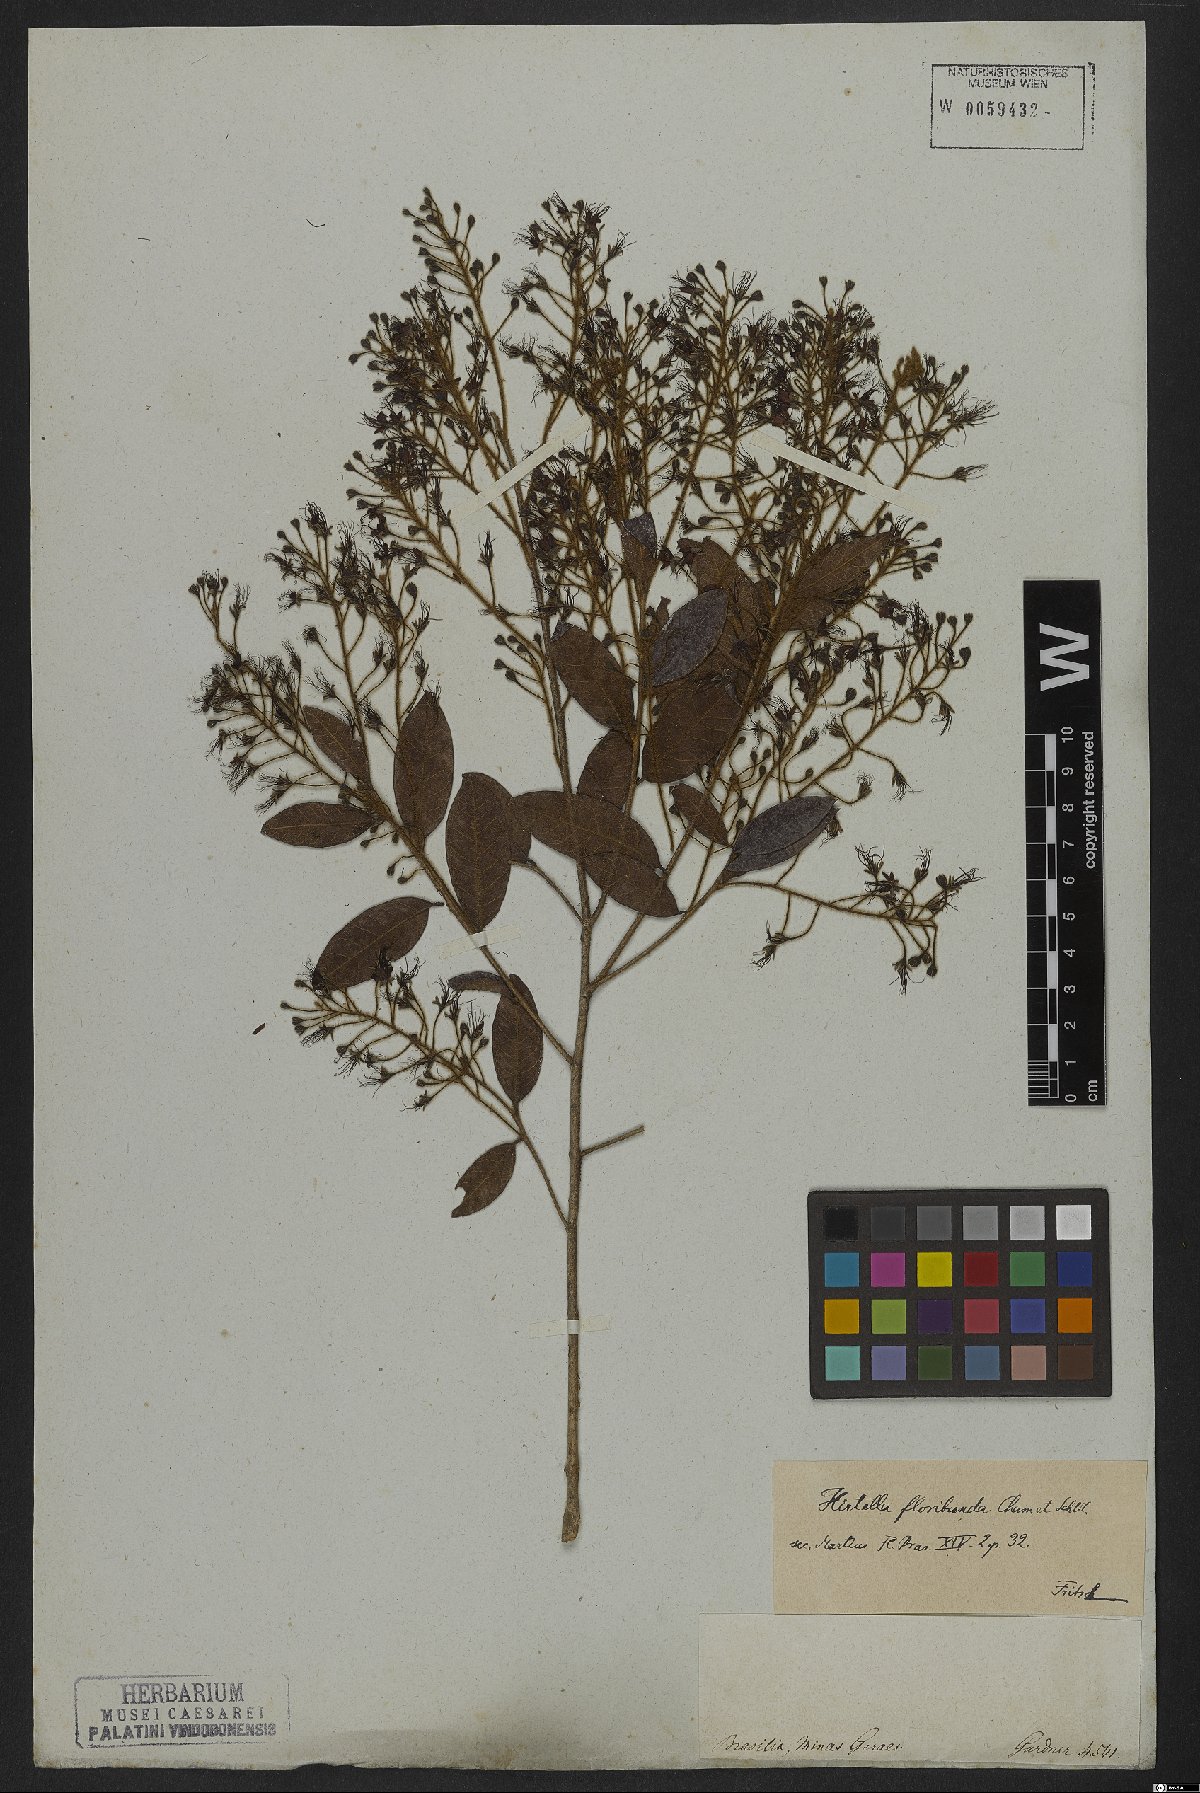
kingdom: Plantae
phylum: Tracheophyta
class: Magnoliopsida
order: Malpighiales
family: Chrysobalanaceae
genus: Hirtella
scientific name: Hirtella floribunda
